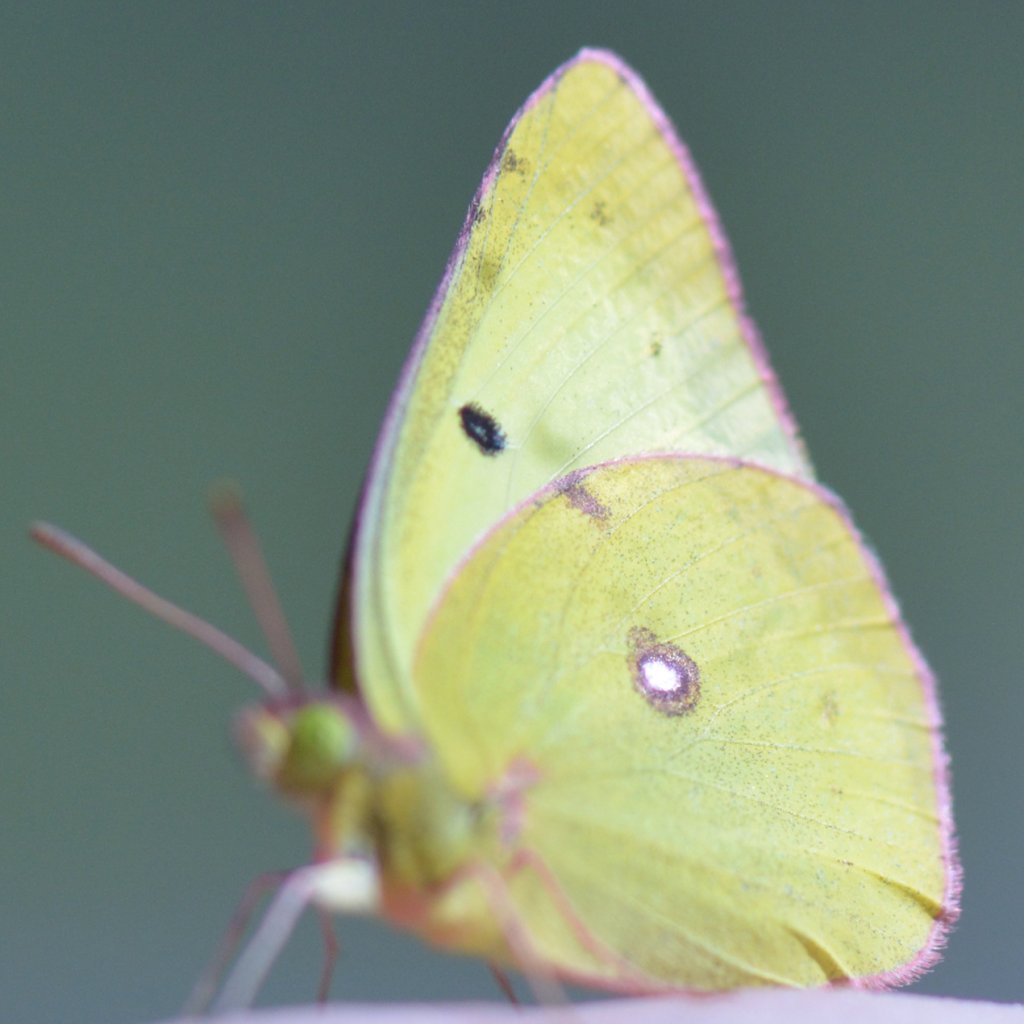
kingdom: Animalia
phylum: Arthropoda
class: Insecta
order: Lepidoptera
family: Pieridae
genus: Colias
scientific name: Colias philodice
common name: Clouded Sulphur
